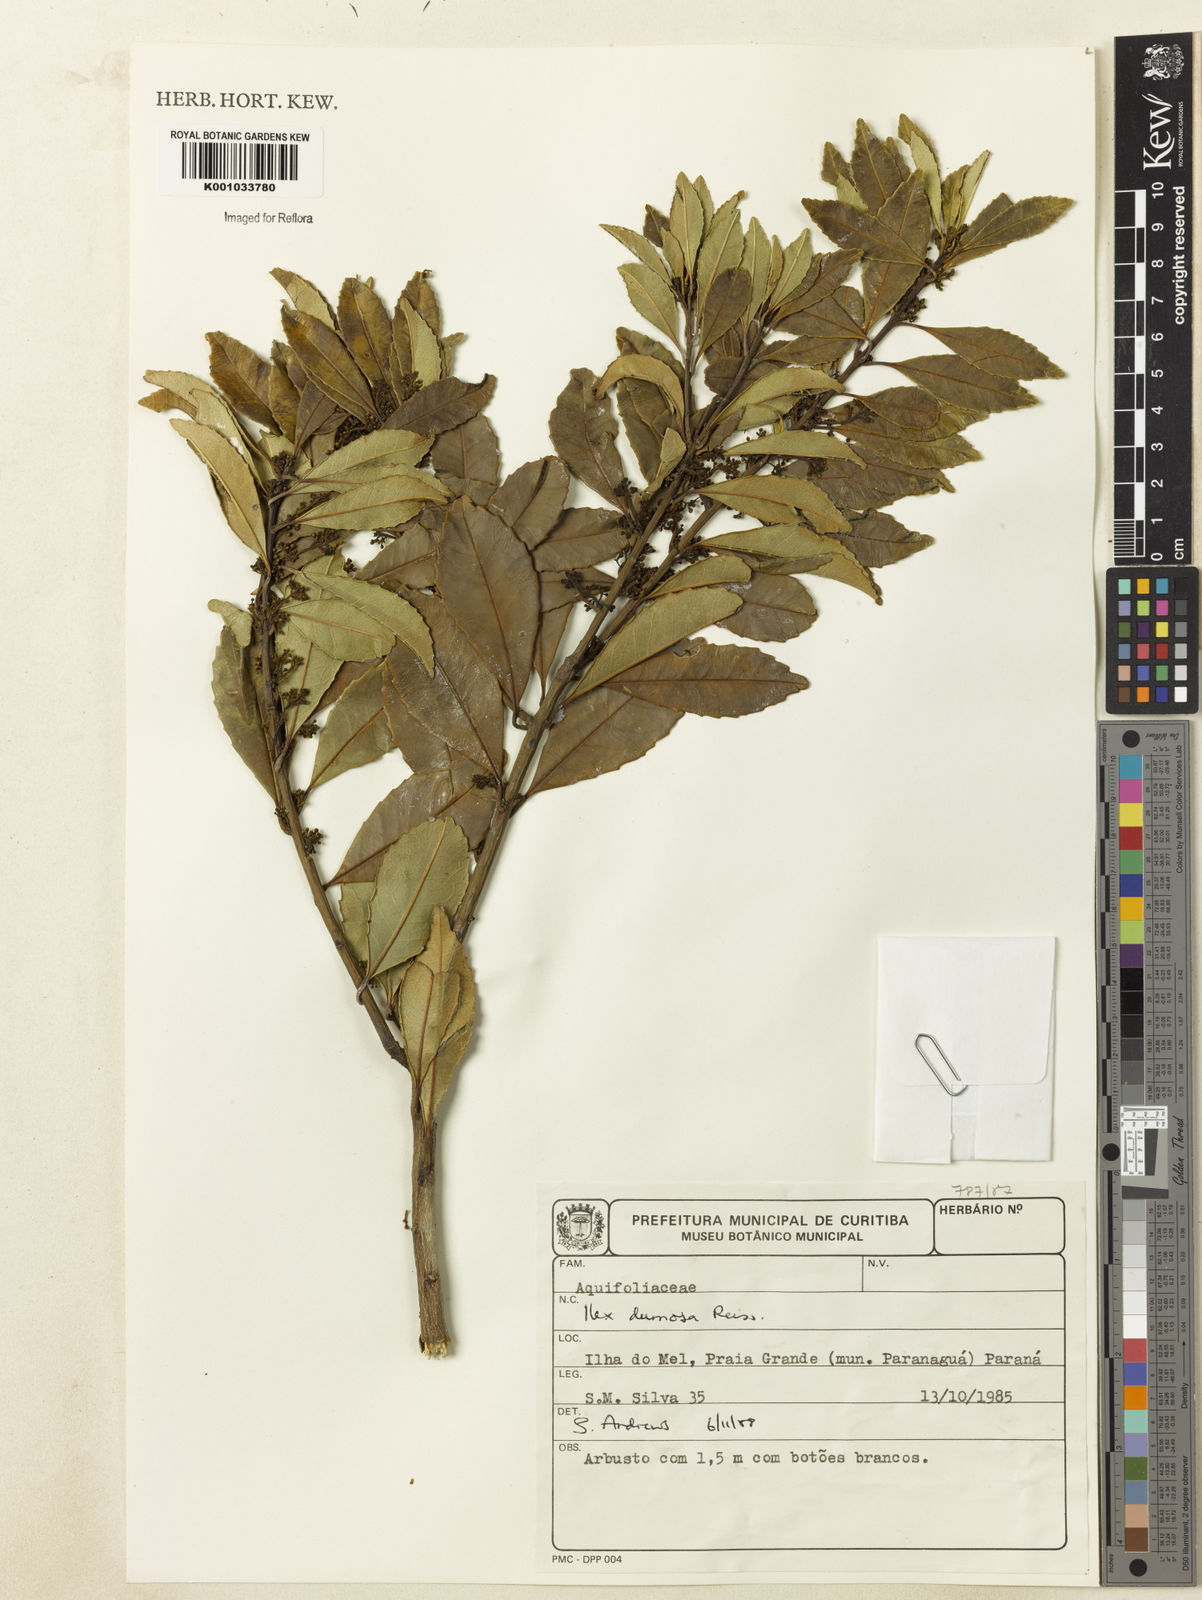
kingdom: Plantae
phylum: Tracheophyta
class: Magnoliopsida
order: Aquifoliales
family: Aquifoliaceae
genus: Ilex
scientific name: Ilex dumosa
